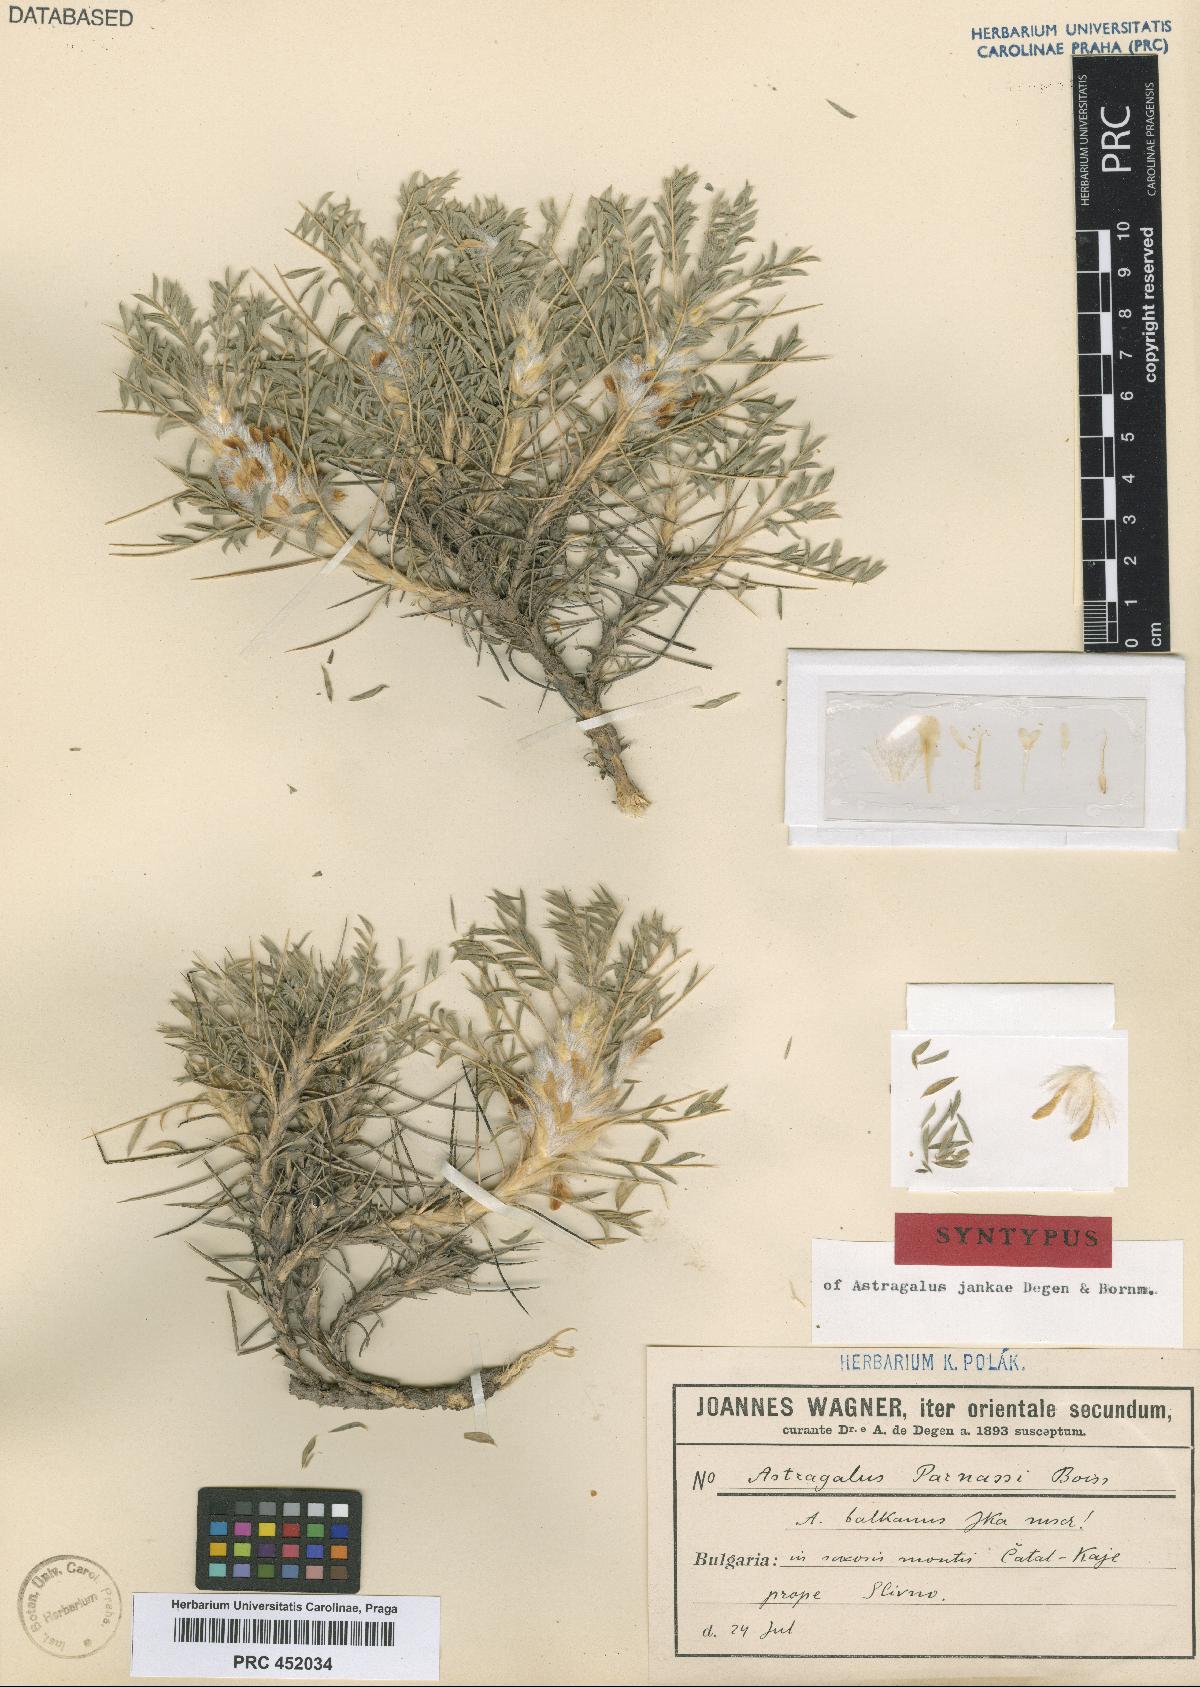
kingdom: Plantae
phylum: Tracheophyta
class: Magnoliopsida
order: Fabales
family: Fabaceae
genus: Astragalus
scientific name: Astragalus parnassi
